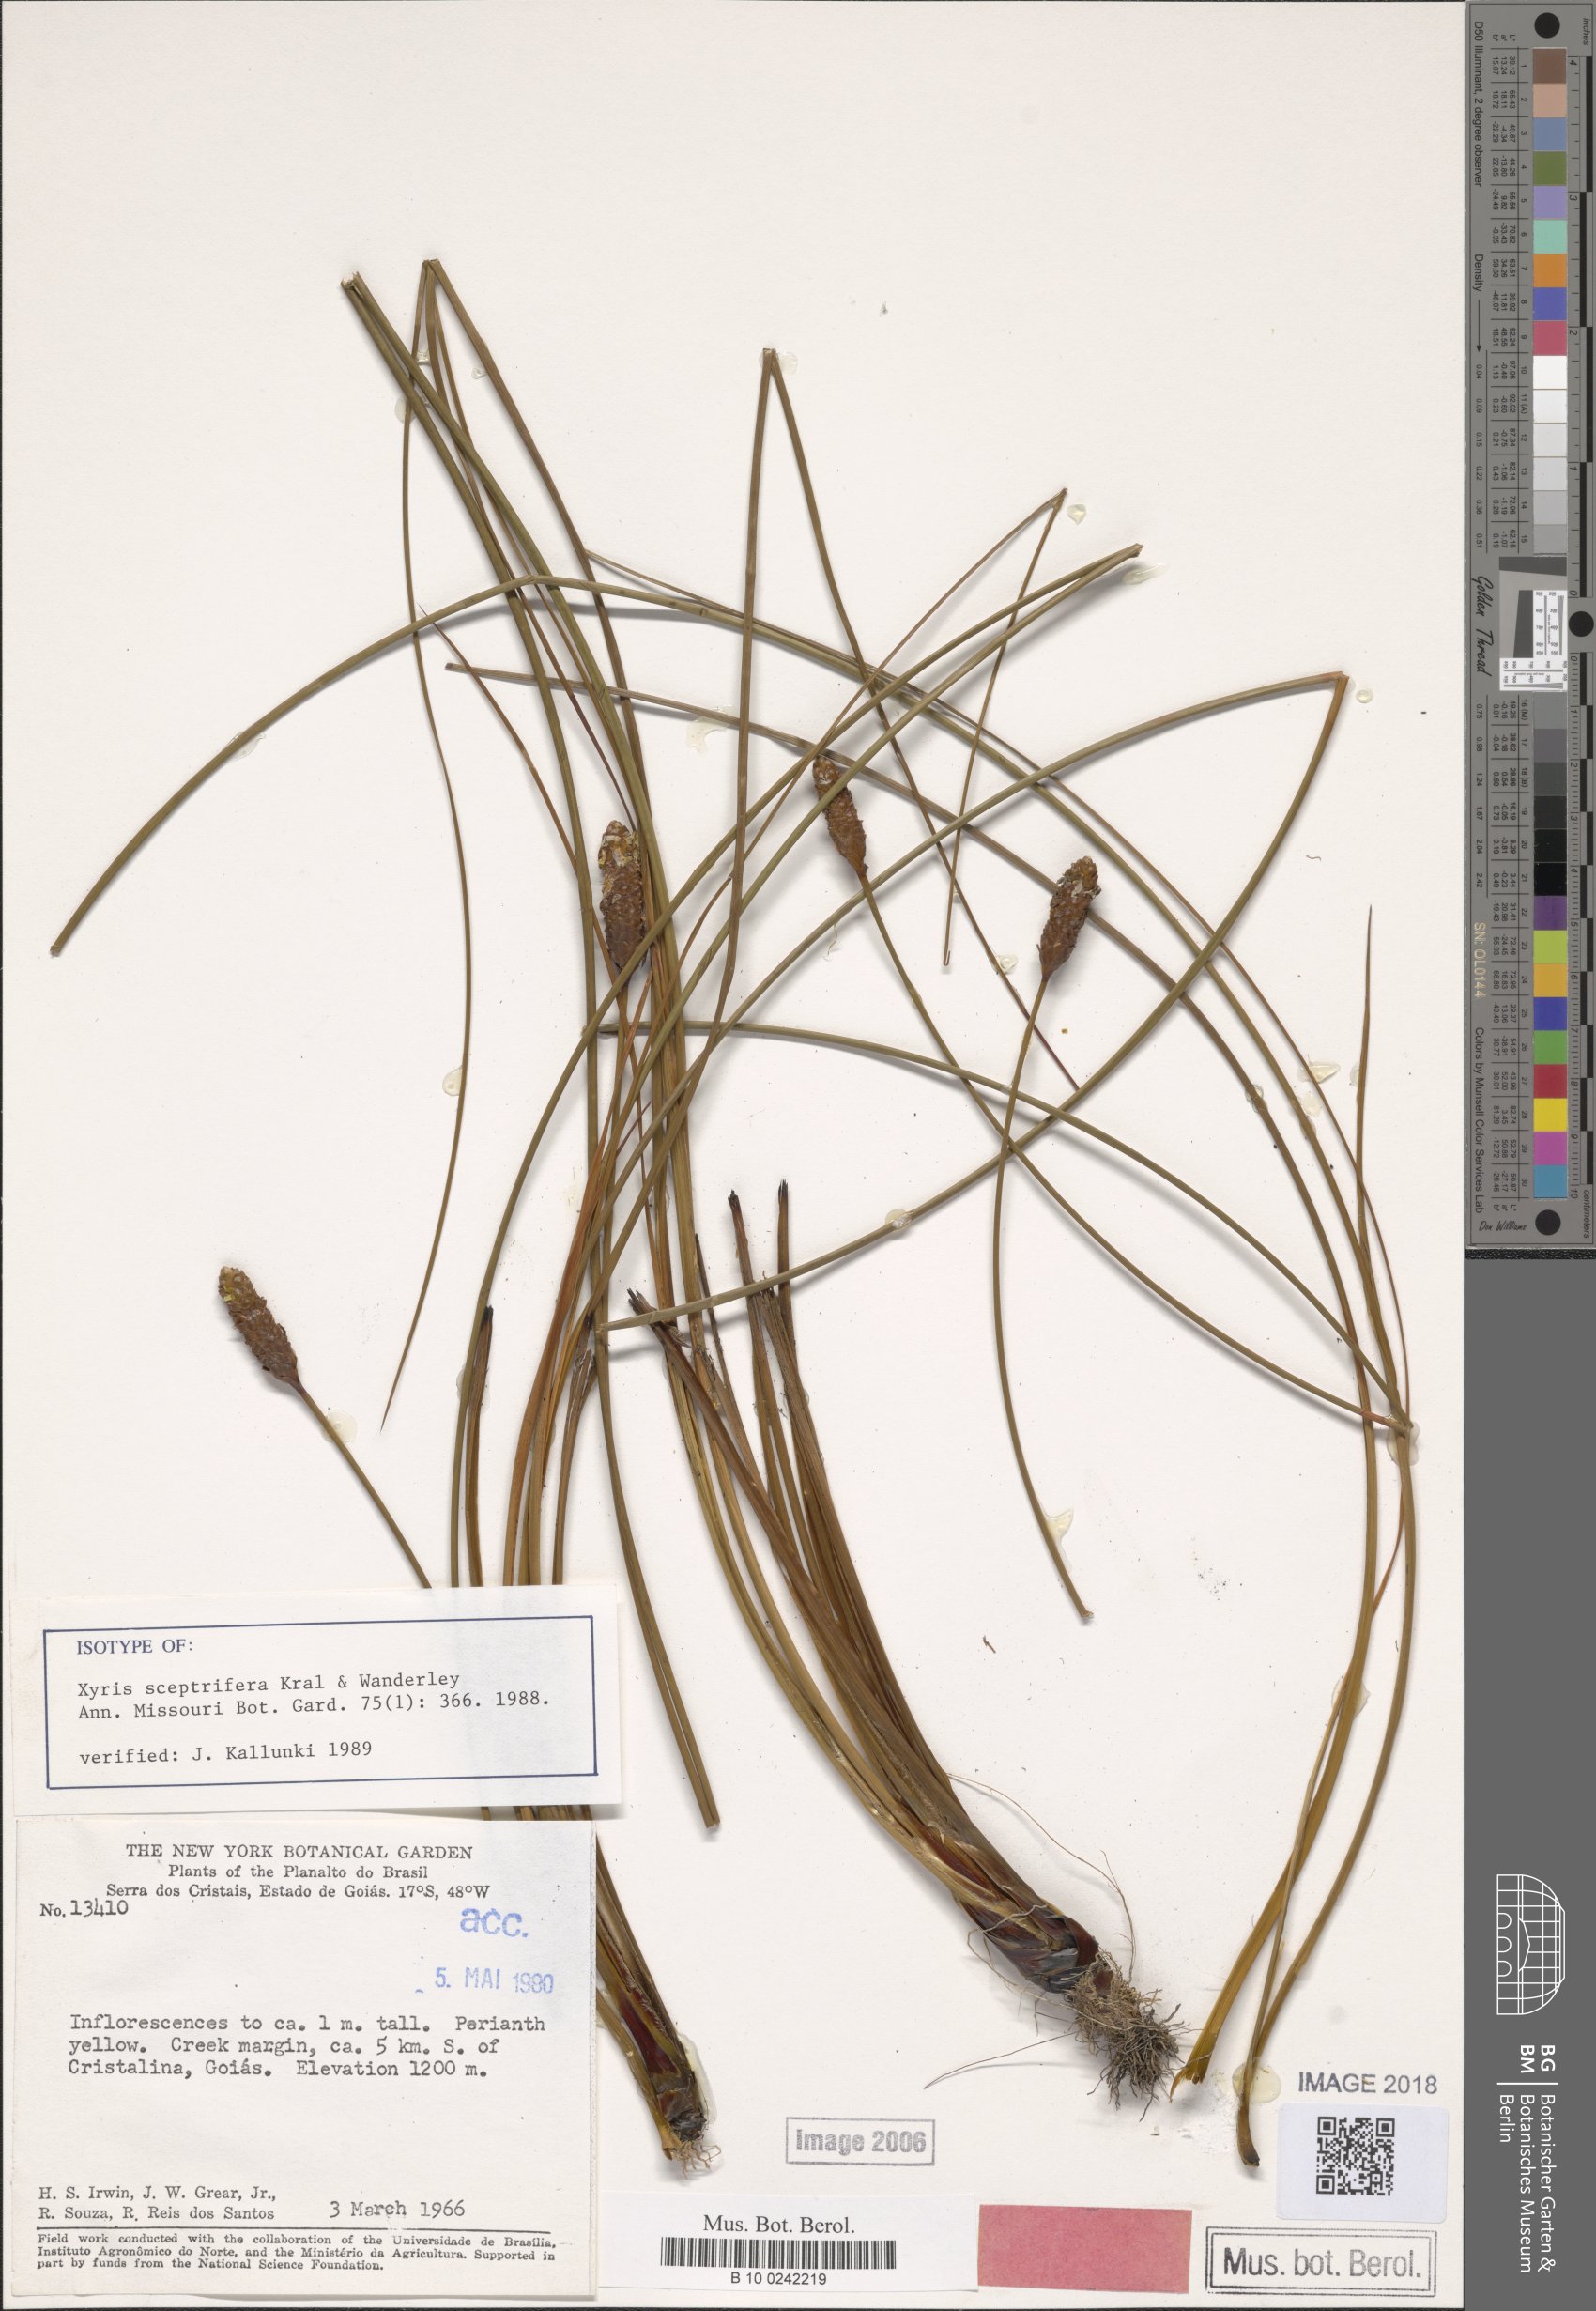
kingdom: Plantae
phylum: Tracheophyta
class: Liliopsida
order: Poales
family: Xyridaceae
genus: Xyris
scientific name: Xyris sceptrifera
